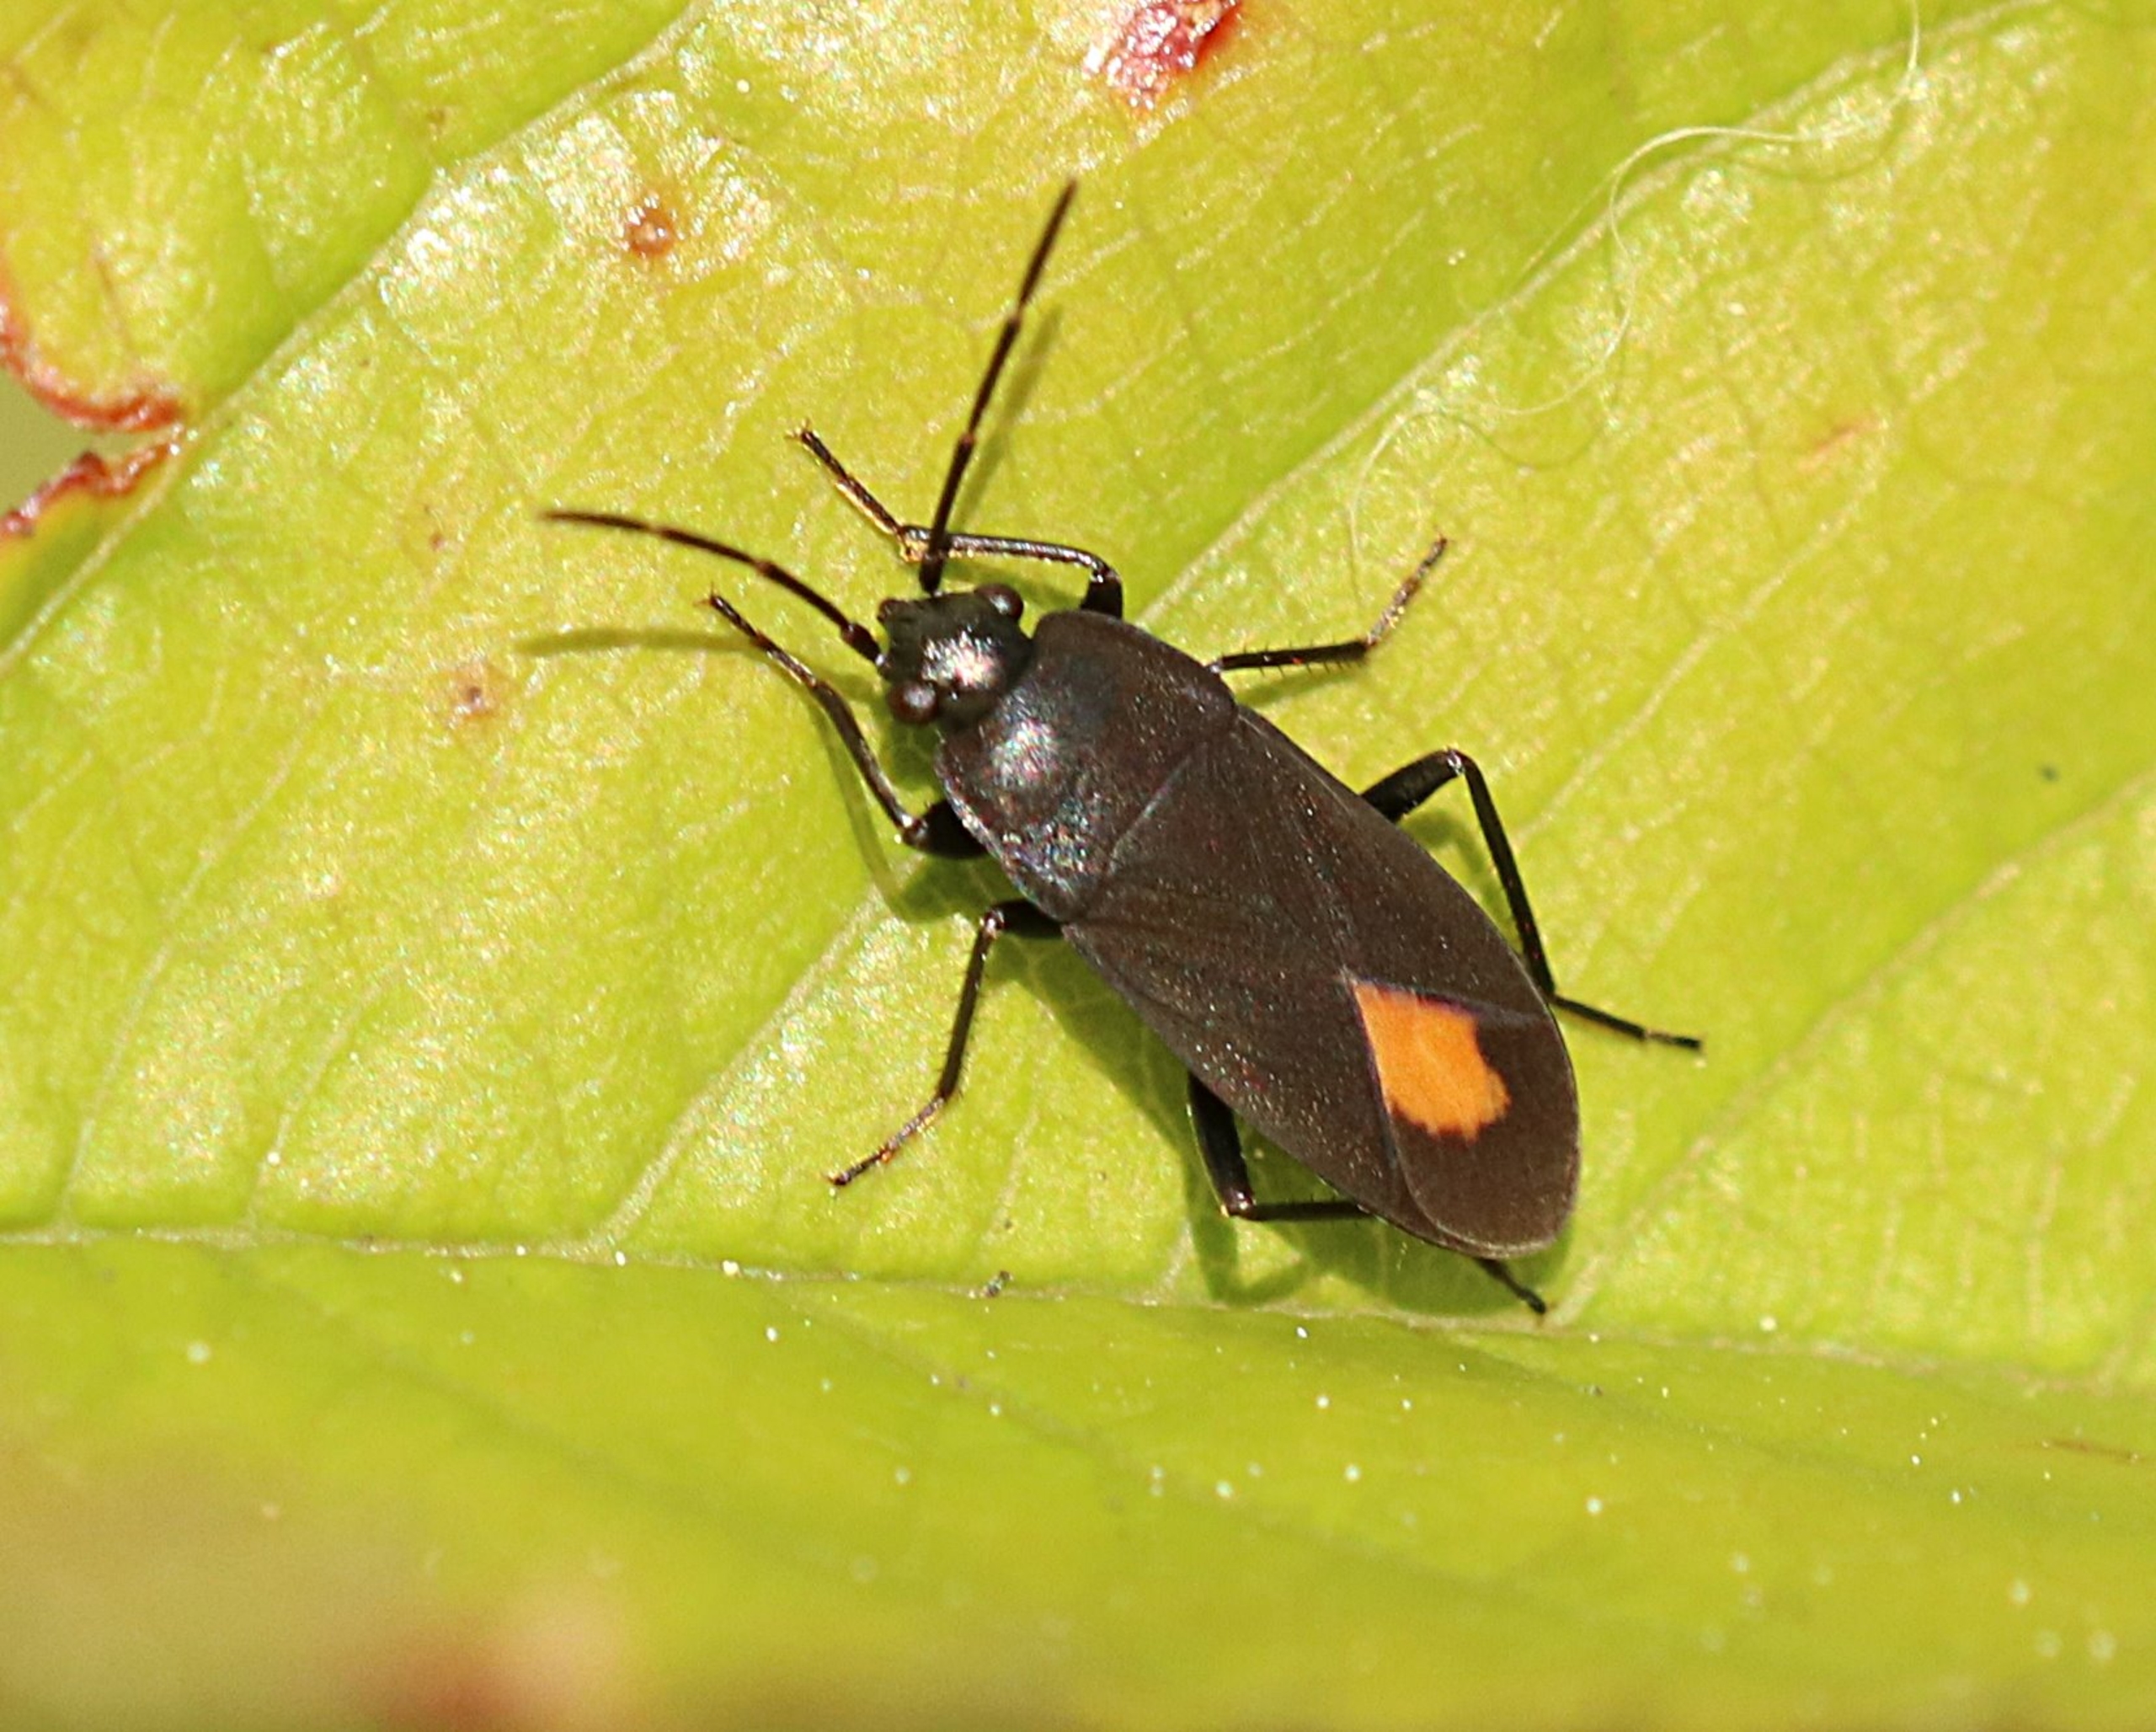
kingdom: Animalia
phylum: Arthropoda
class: Insecta
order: Hemiptera
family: Rhyparochromidae
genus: Aphanus
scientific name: Aphanus rolandri
